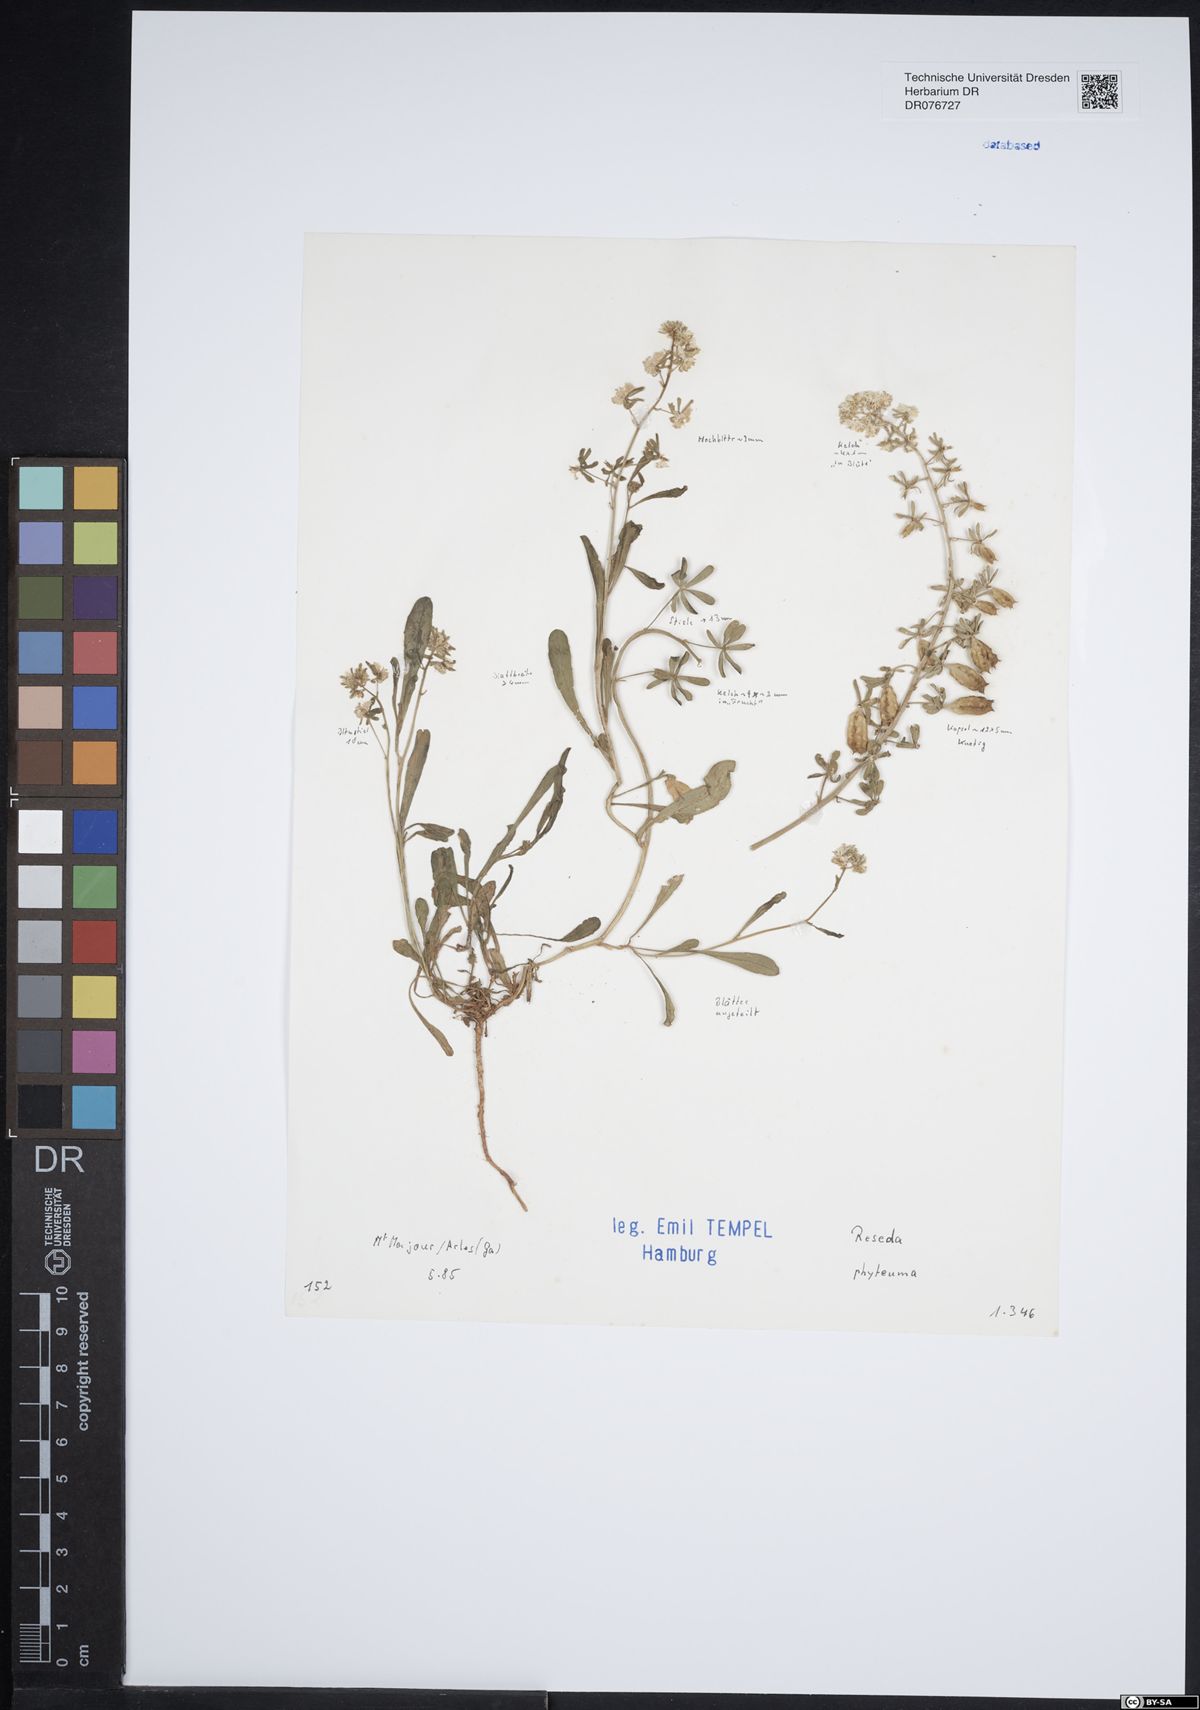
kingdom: Plantae
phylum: Tracheophyta
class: Magnoliopsida
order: Brassicales
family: Resedaceae
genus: Reseda
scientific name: Reseda phyteuma
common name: Corn mignonette
